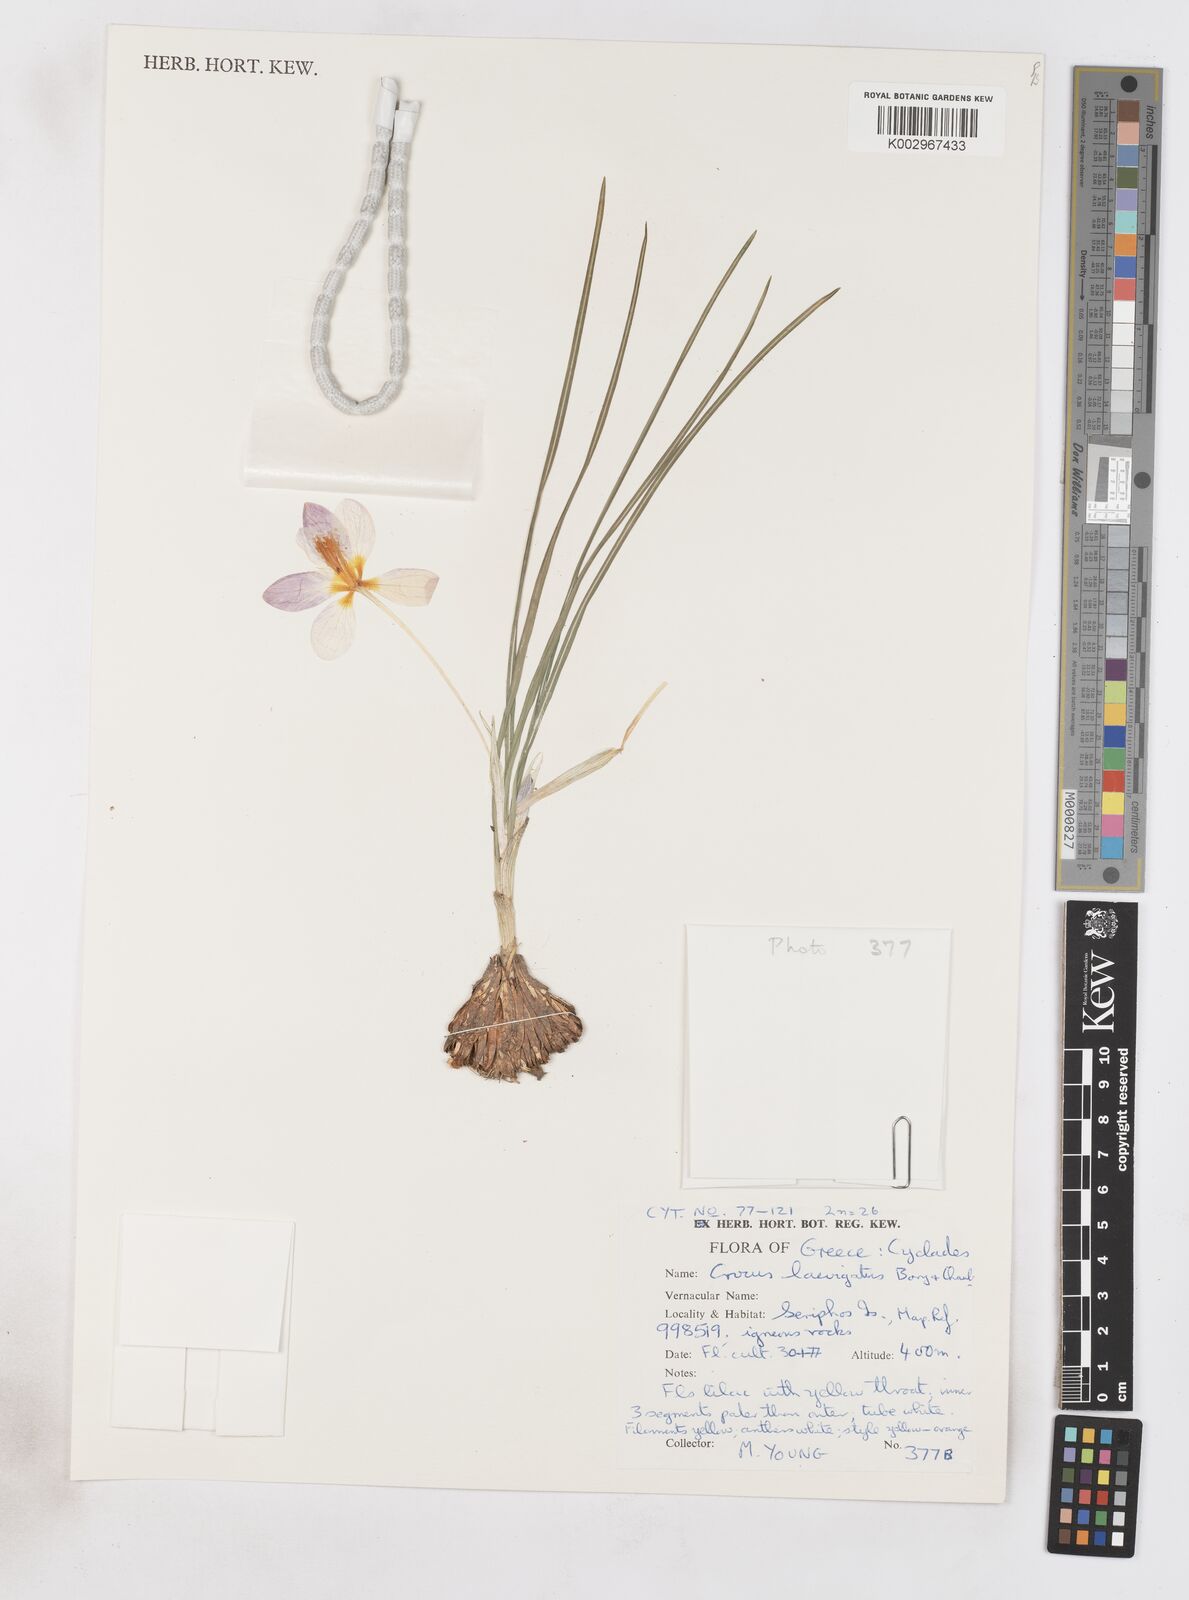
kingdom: Plantae
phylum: Tracheophyta
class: Liliopsida
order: Asparagales
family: Iridaceae
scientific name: Iridaceae
